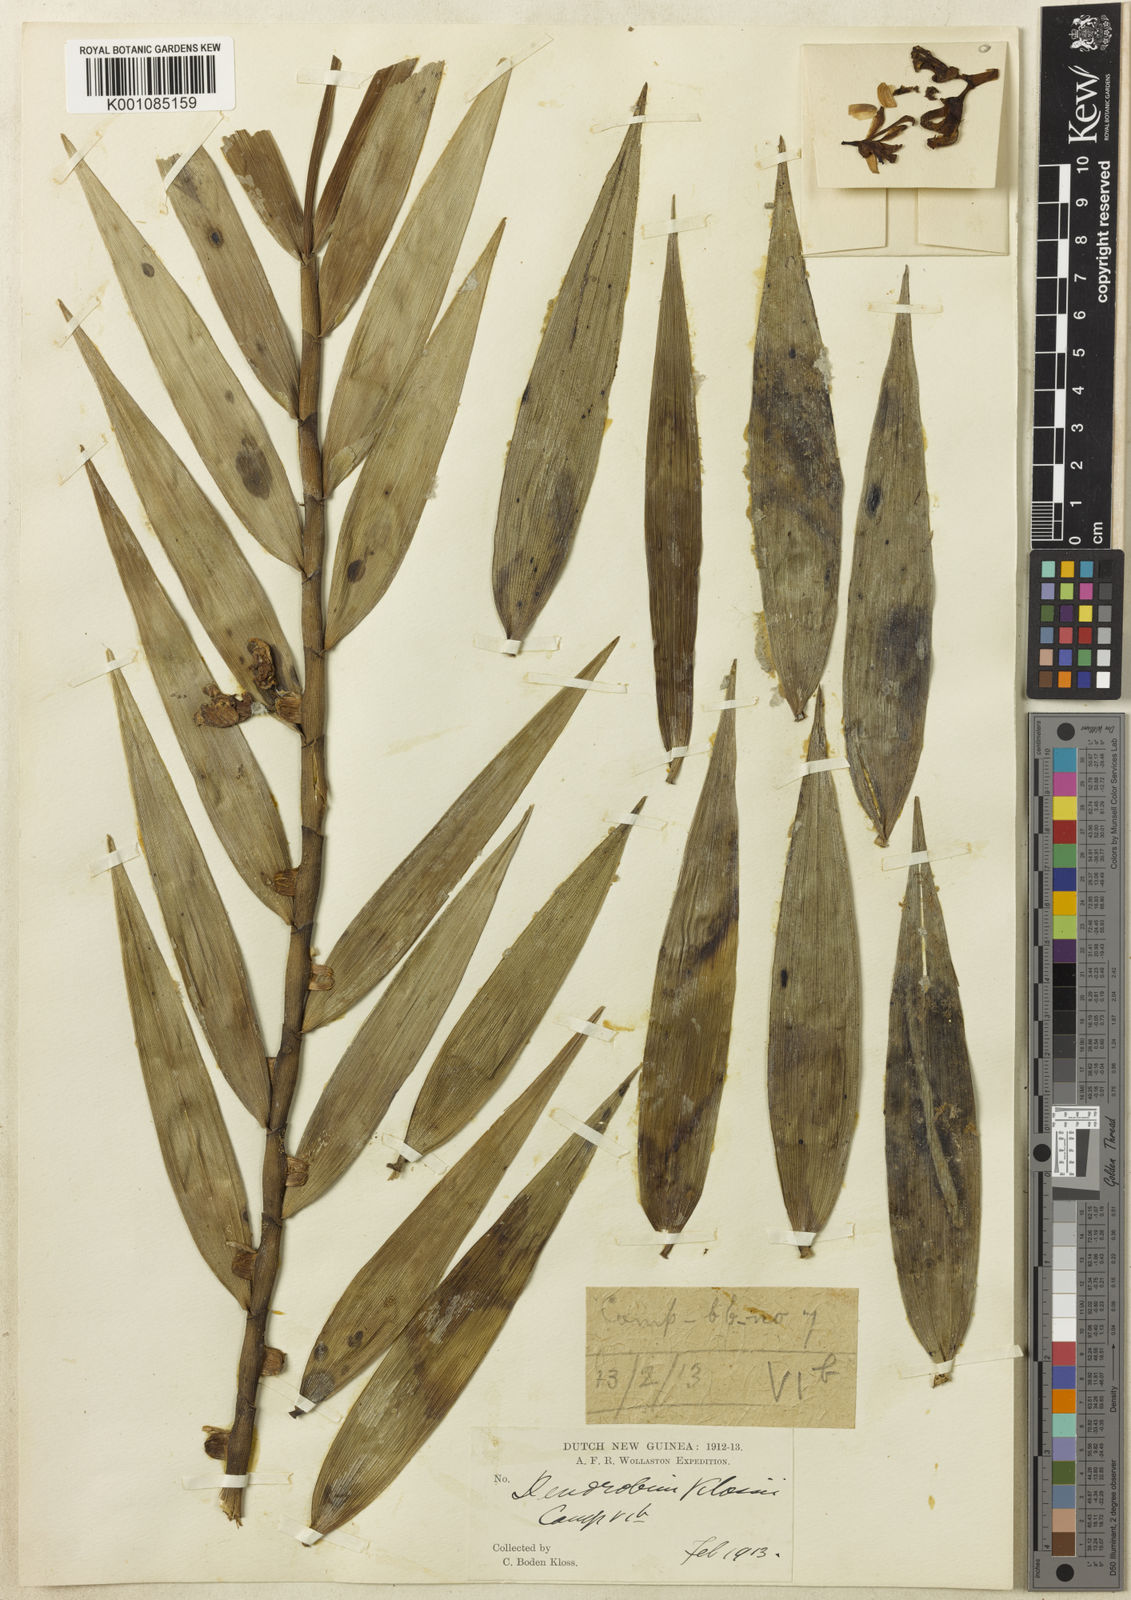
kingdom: Plantae
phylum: Tracheophyta
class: Liliopsida
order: Asparagales
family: Orchidaceae
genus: Dendrobium
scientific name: Dendrobium gjellerupii
